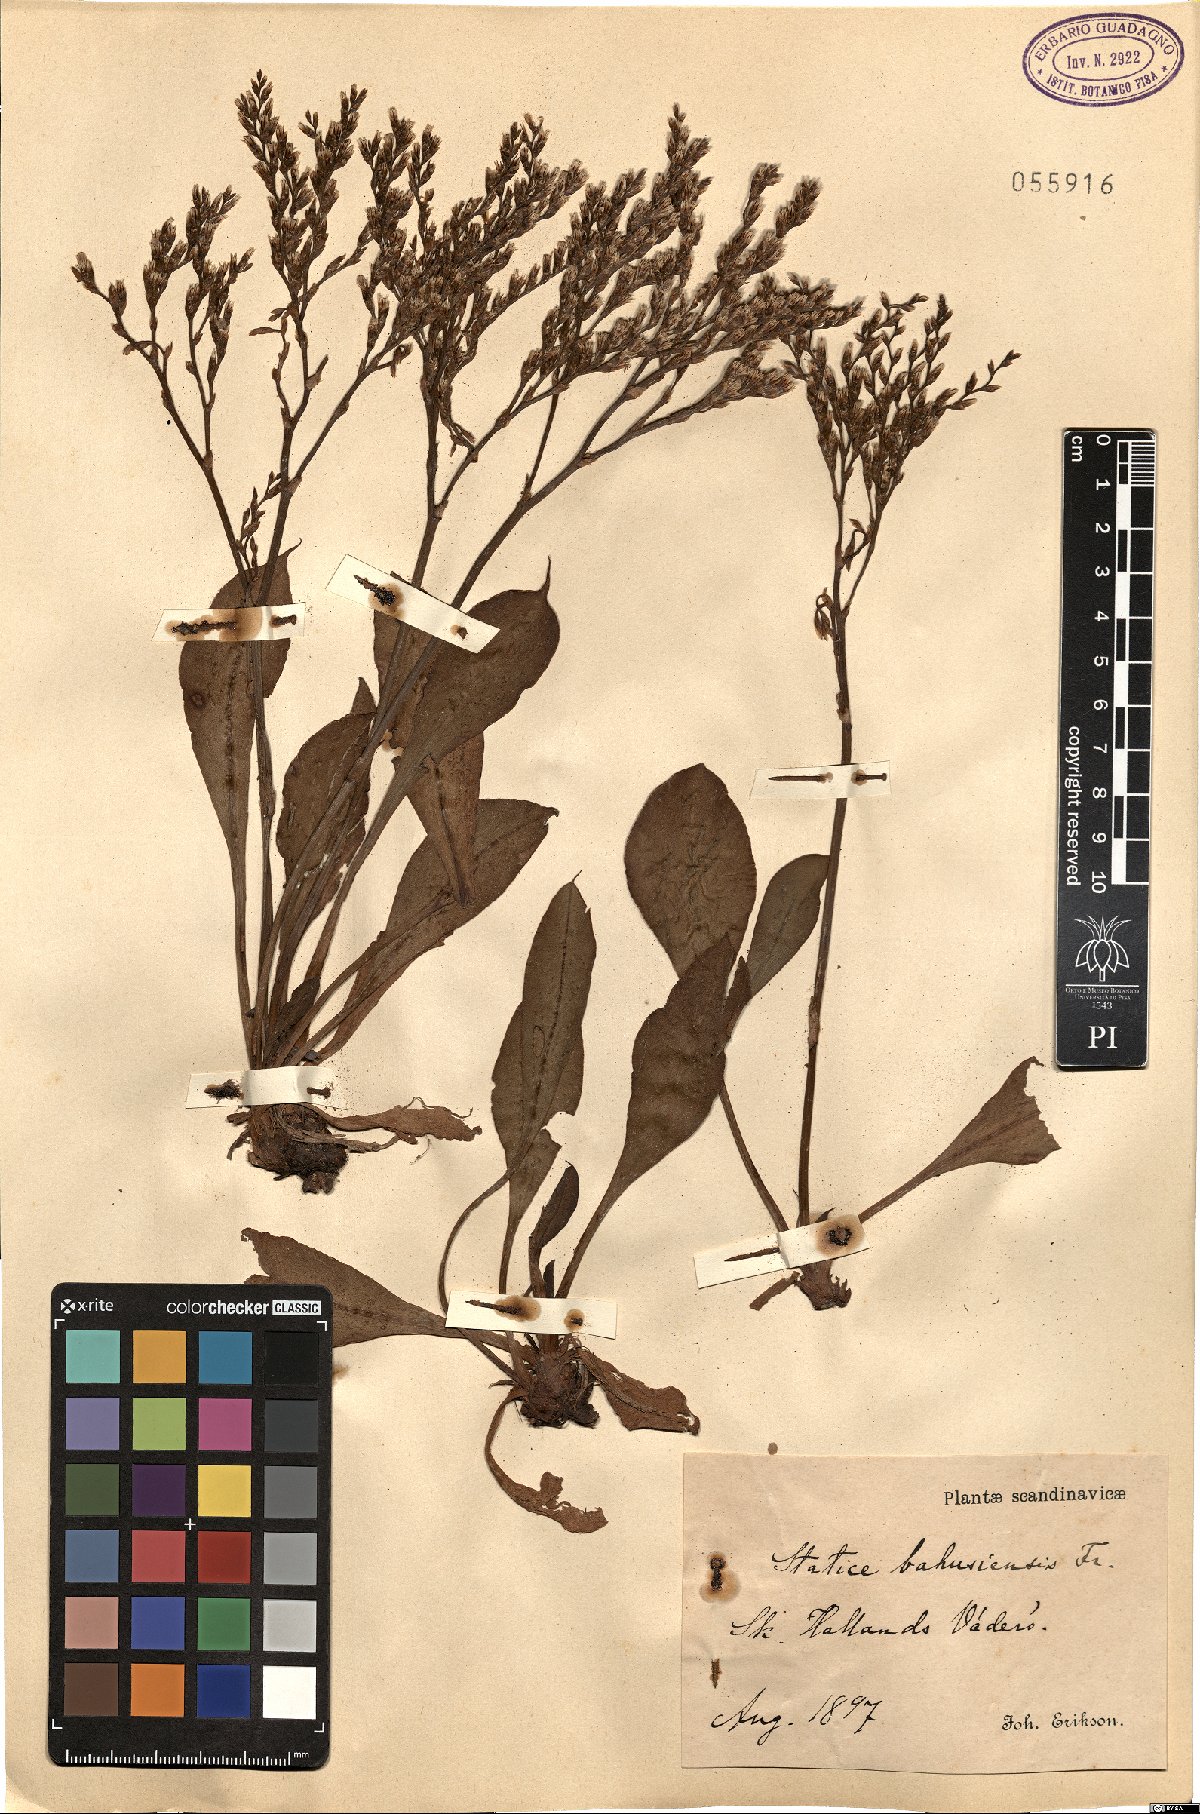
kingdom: Plantae
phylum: Tracheophyta
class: Magnoliopsida
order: Caryophyllales
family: Plumbaginaceae
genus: Limonium
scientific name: Limonium humile
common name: Lax-flowered sea-lavender
